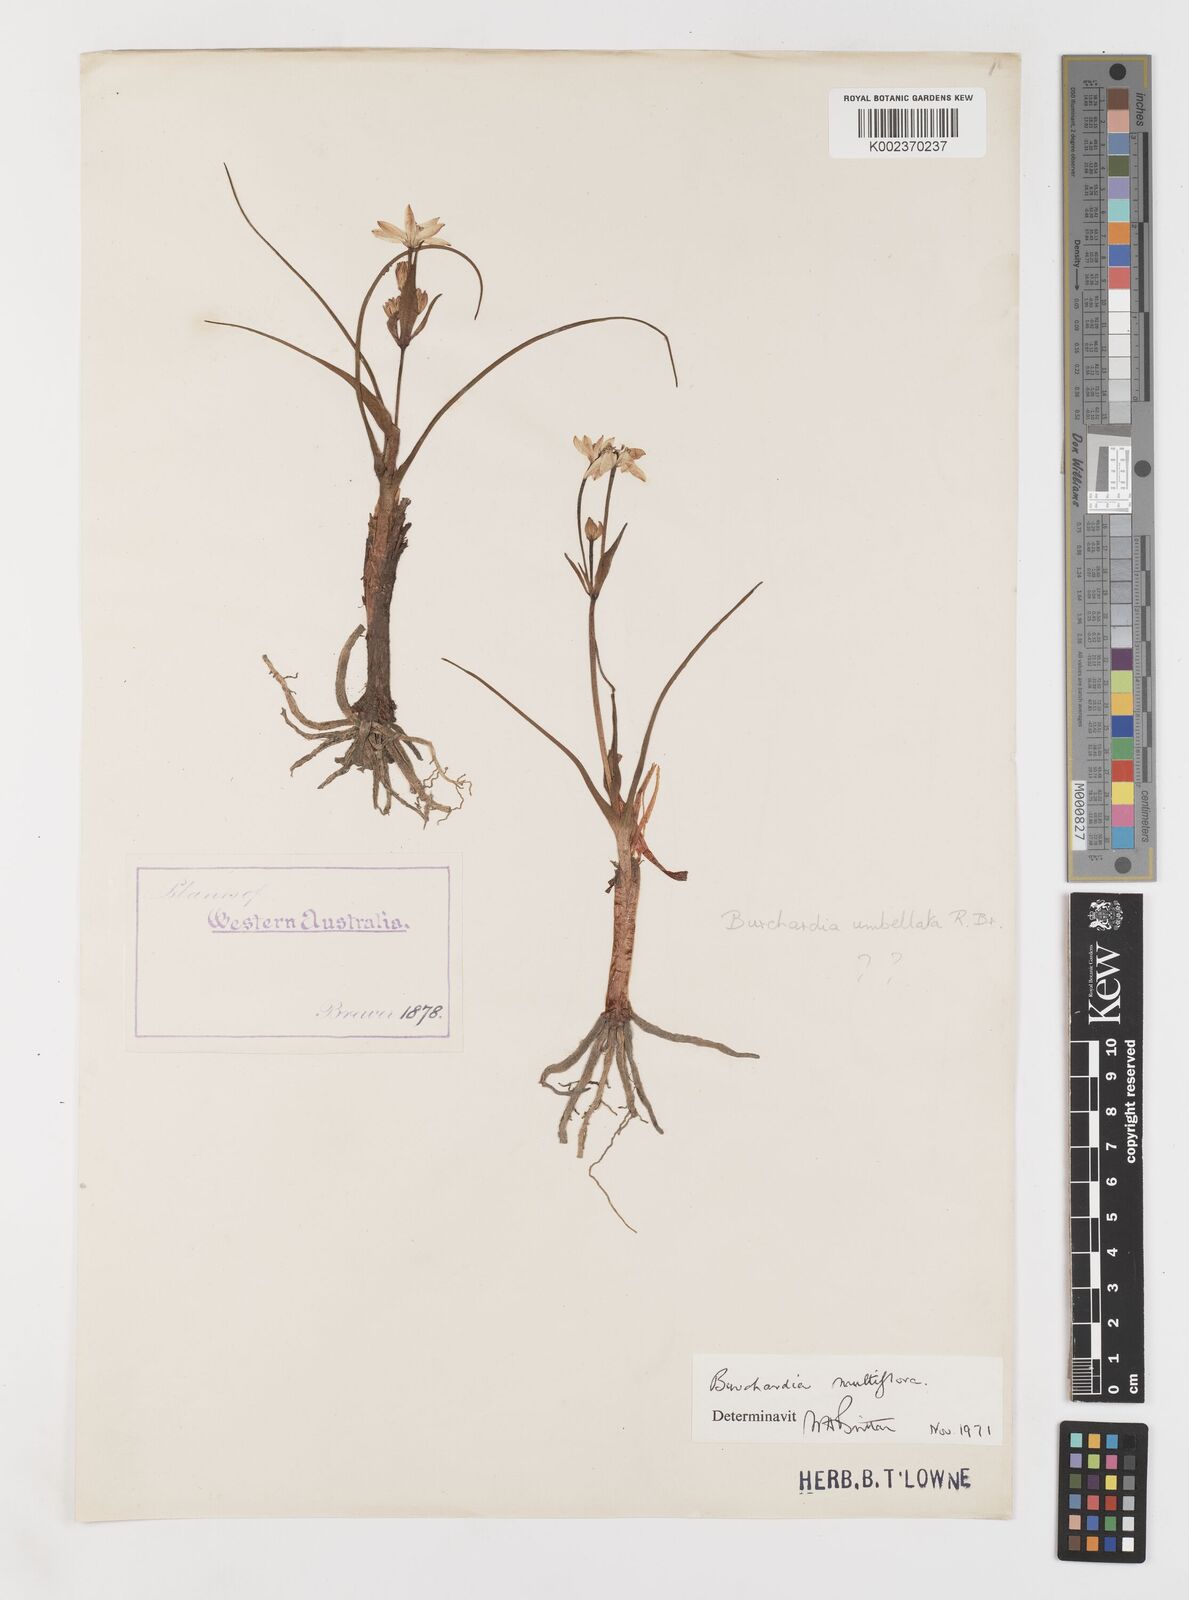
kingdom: Plantae
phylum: Tracheophyta
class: Liliopsida
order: Liliales
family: Colchicaceae
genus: Burchardia
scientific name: Burchardia multiflora
